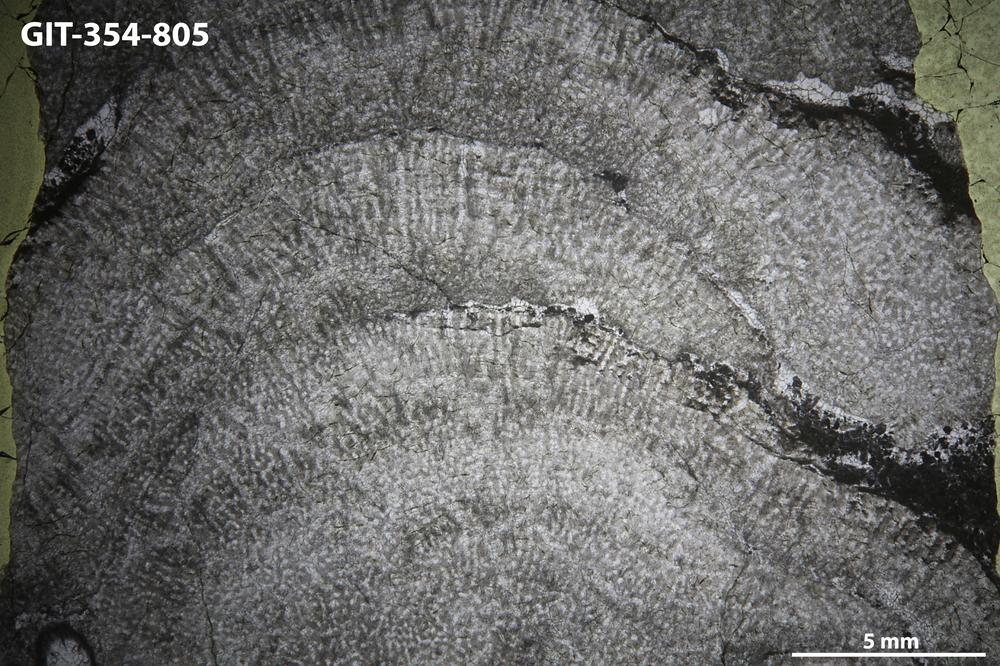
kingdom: Animalia
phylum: Porifera
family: Pseudolabechiidae
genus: Vikingia
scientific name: Vikingia
